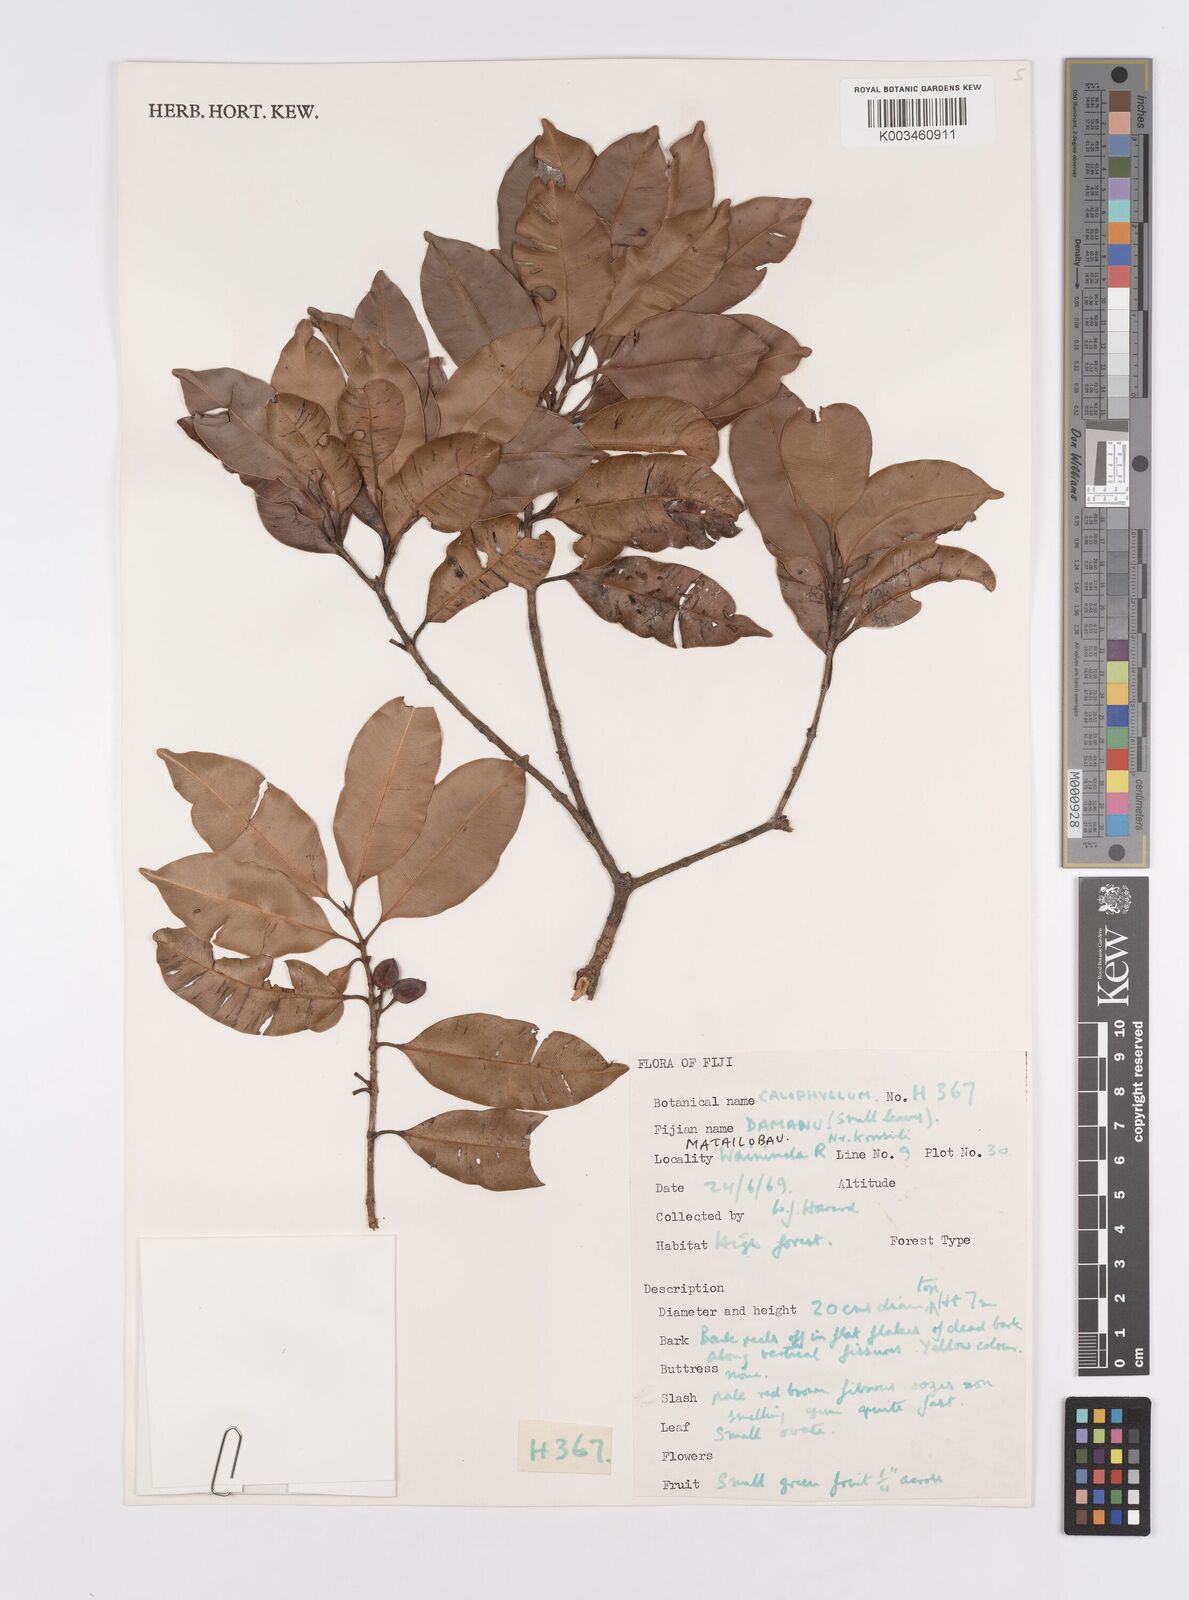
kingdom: Plantae
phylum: Tracheophyta
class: Magnoliopsida
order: Malpighiales
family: Calophyllaceae
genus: Calophyllum
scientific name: Calophyllum
